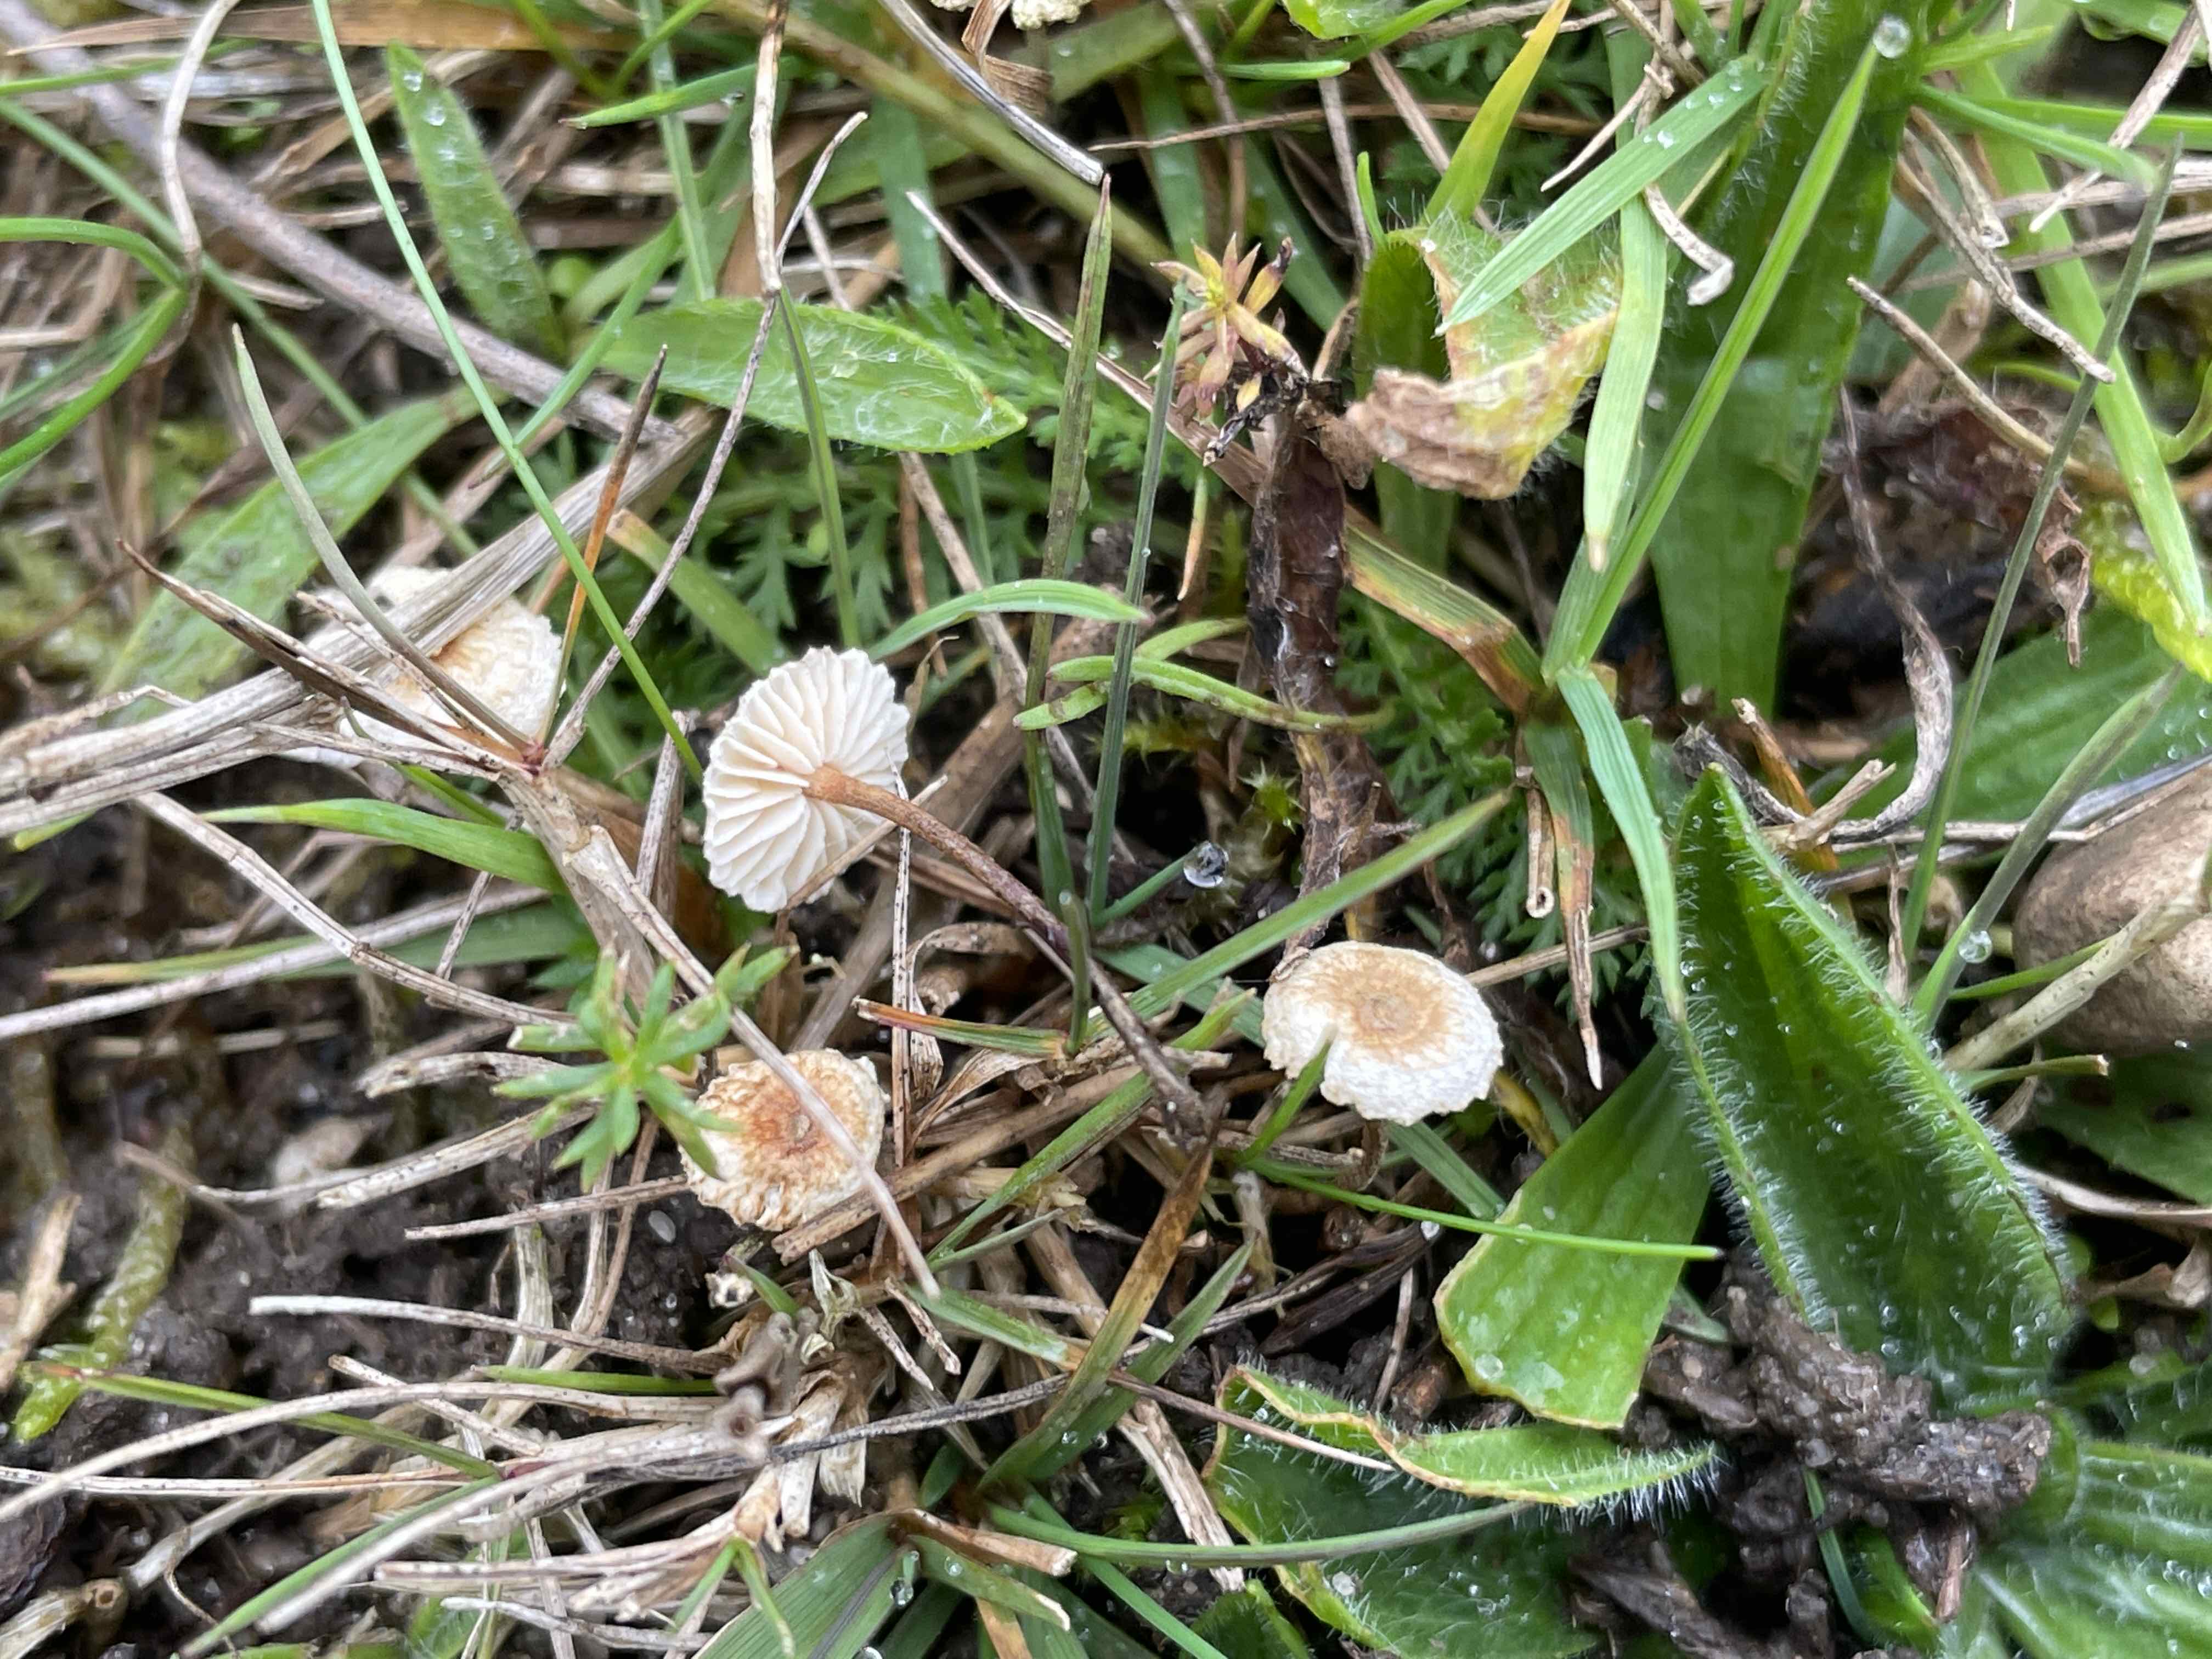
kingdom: Fungi
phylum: Basidiomycota
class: Agaricomycetes
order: Agaricales
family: Marasmiaceae
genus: Crinipellis
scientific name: Crinipellis scabella
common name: børstefod
